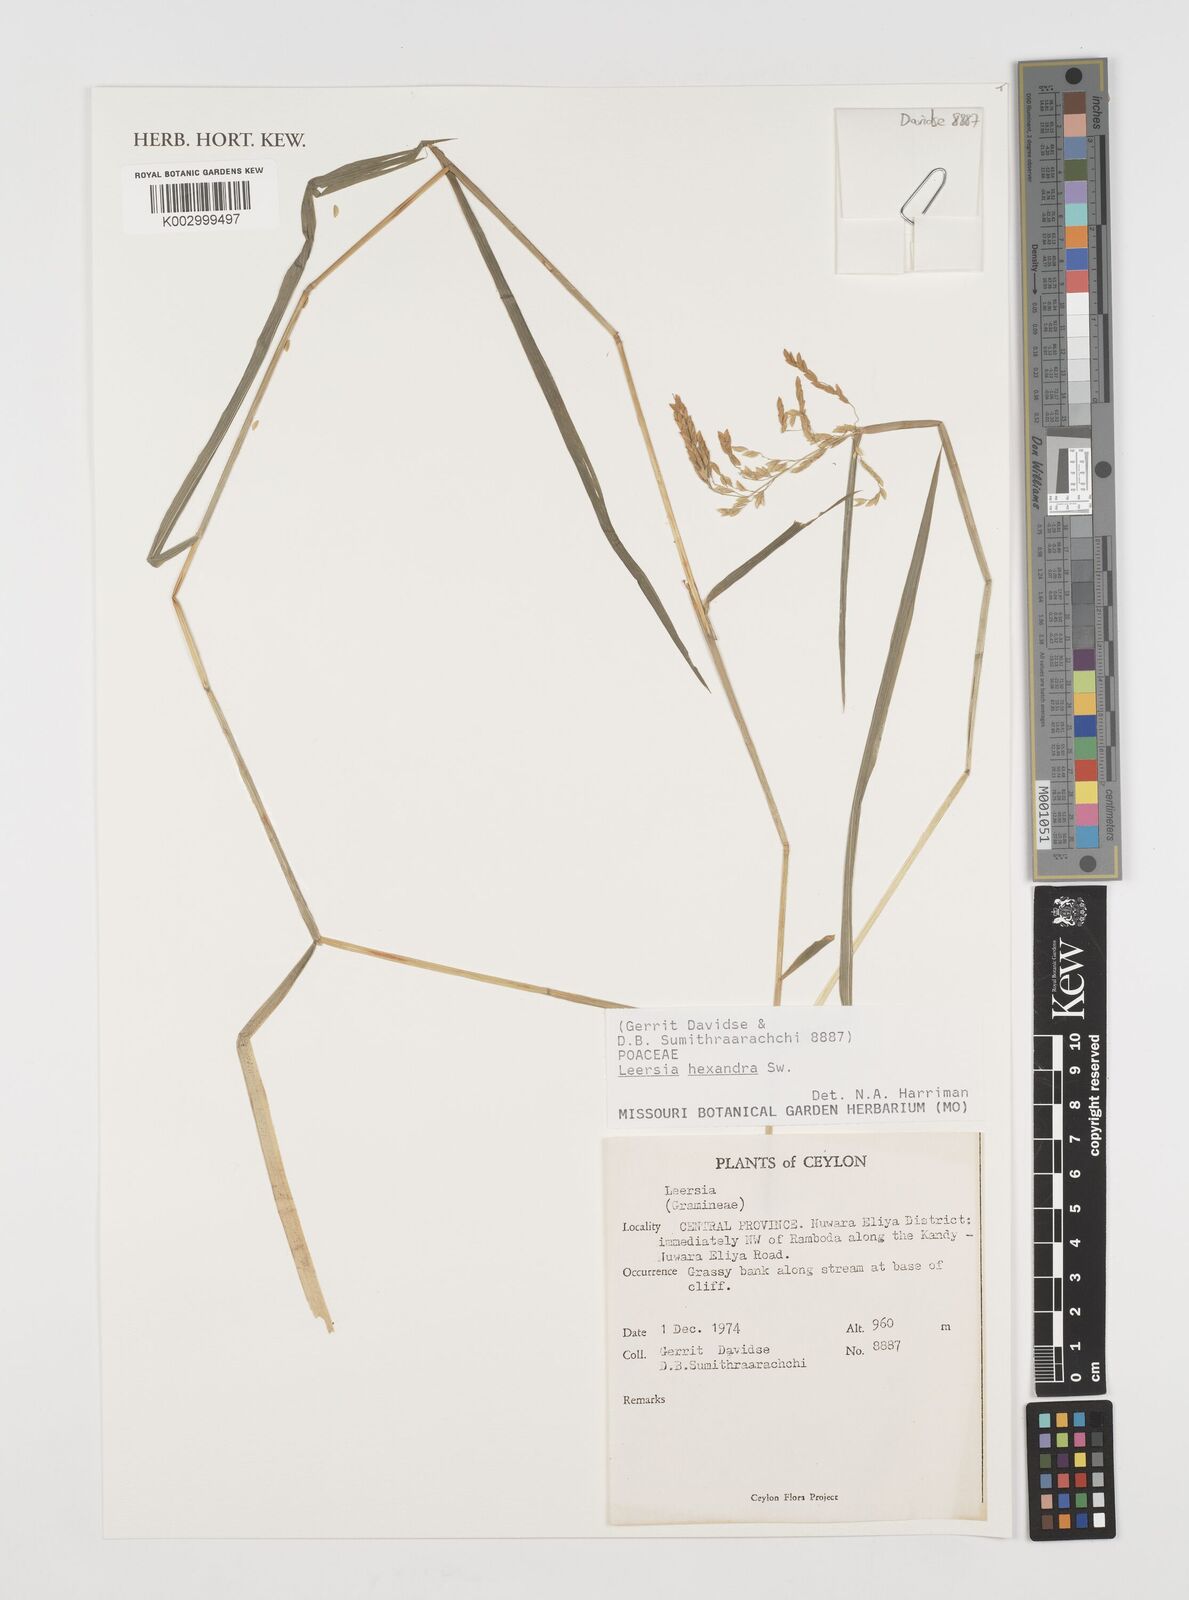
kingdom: Plantae
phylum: Tracheophyta
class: Liliopsida
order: Poales
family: Poaceae
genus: Leersia
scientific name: Leersia hexandra
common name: Southern cut grass
